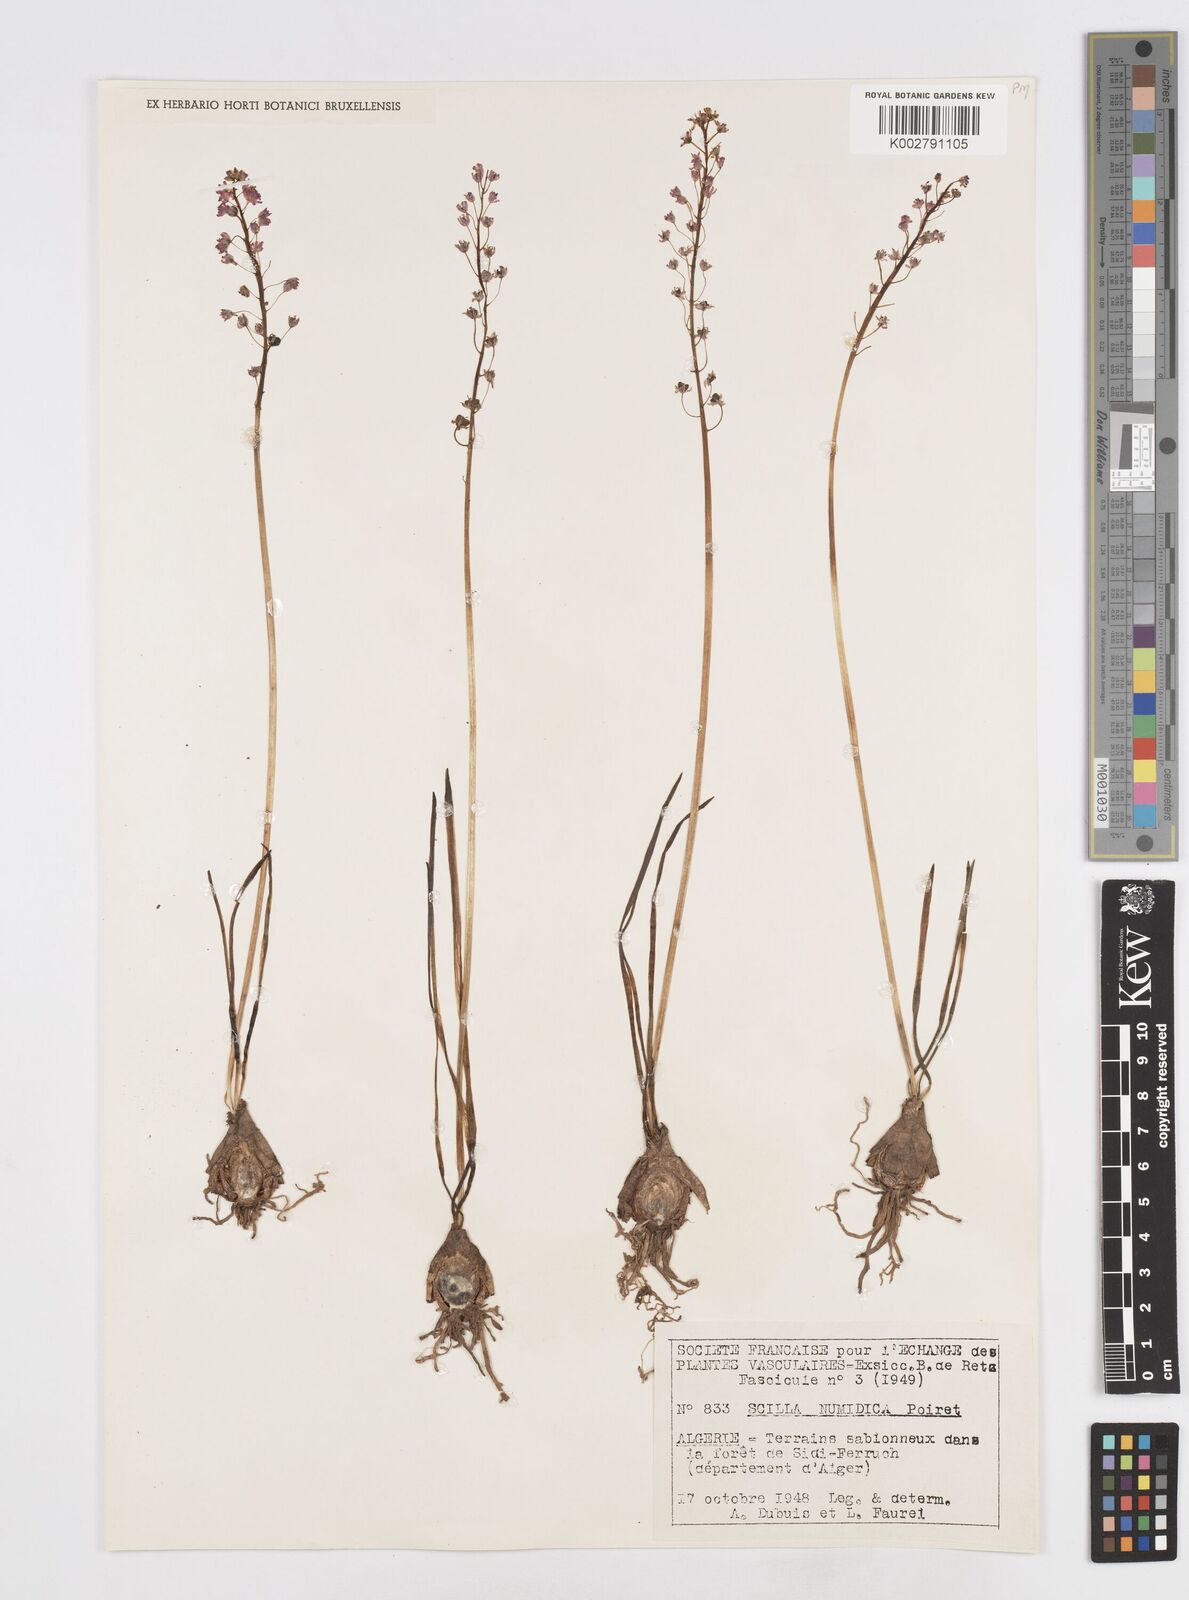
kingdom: Plantae
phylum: Tracheophyta
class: Liliopsida
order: Asparagales
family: Asparagaceae
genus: Barnardia
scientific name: Barnardia numidica
